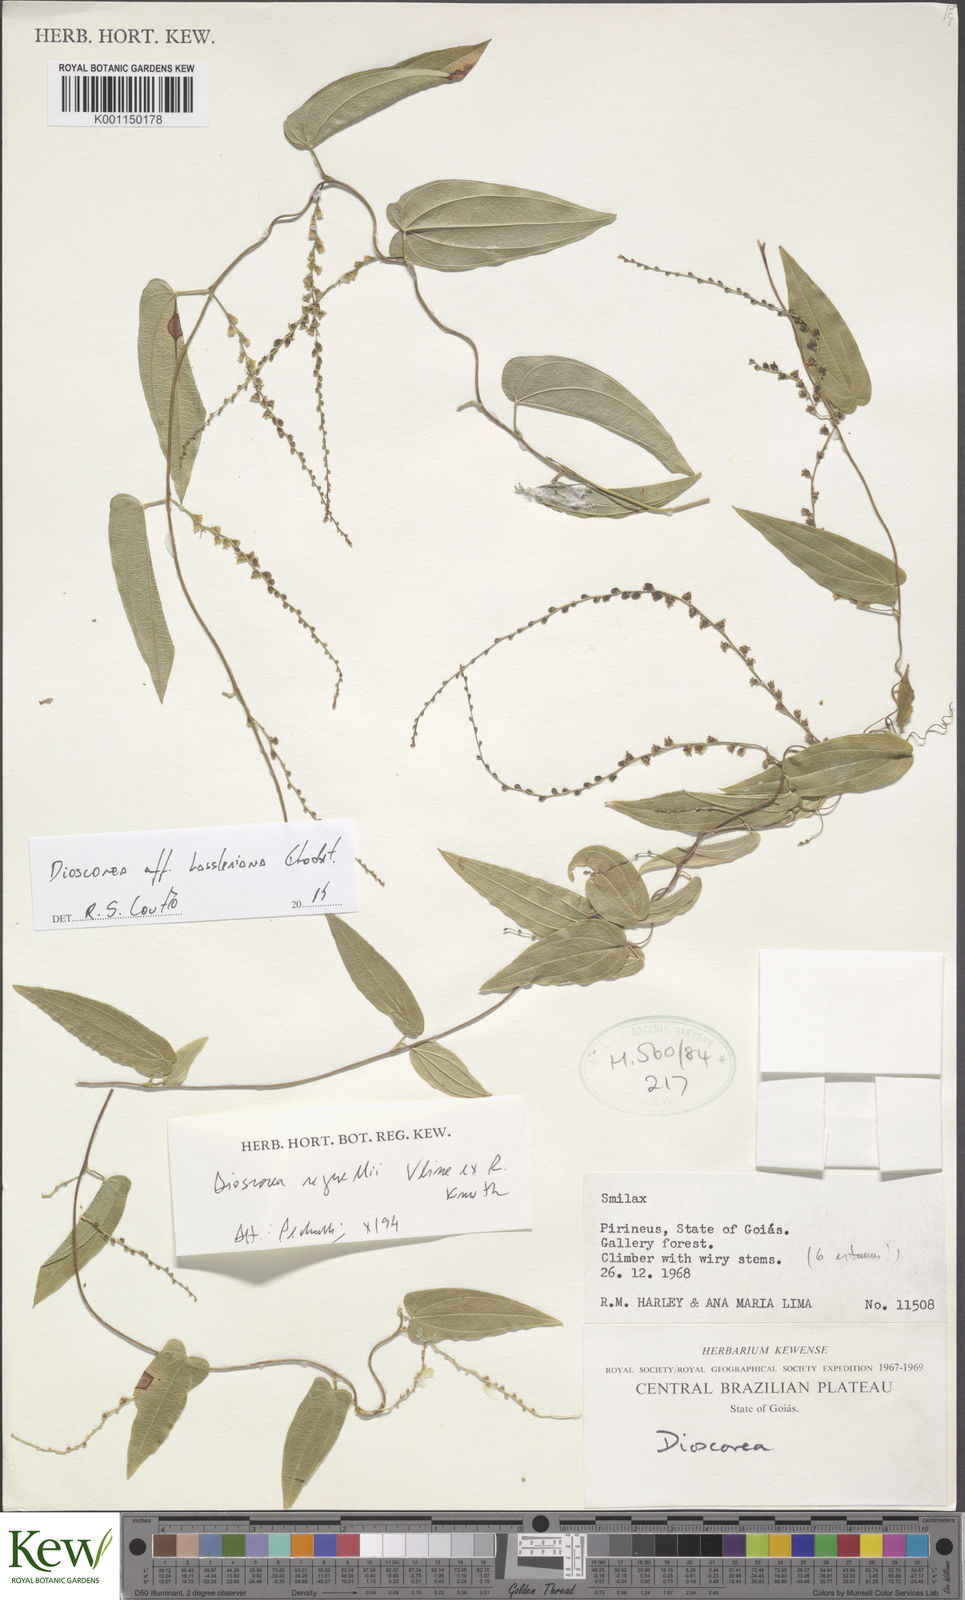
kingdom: Plantae
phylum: Tracheophyta
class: Liliopsida
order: Dioscoreales
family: Dioscoreaceae
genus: Dioscorea
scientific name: Dioscorea
